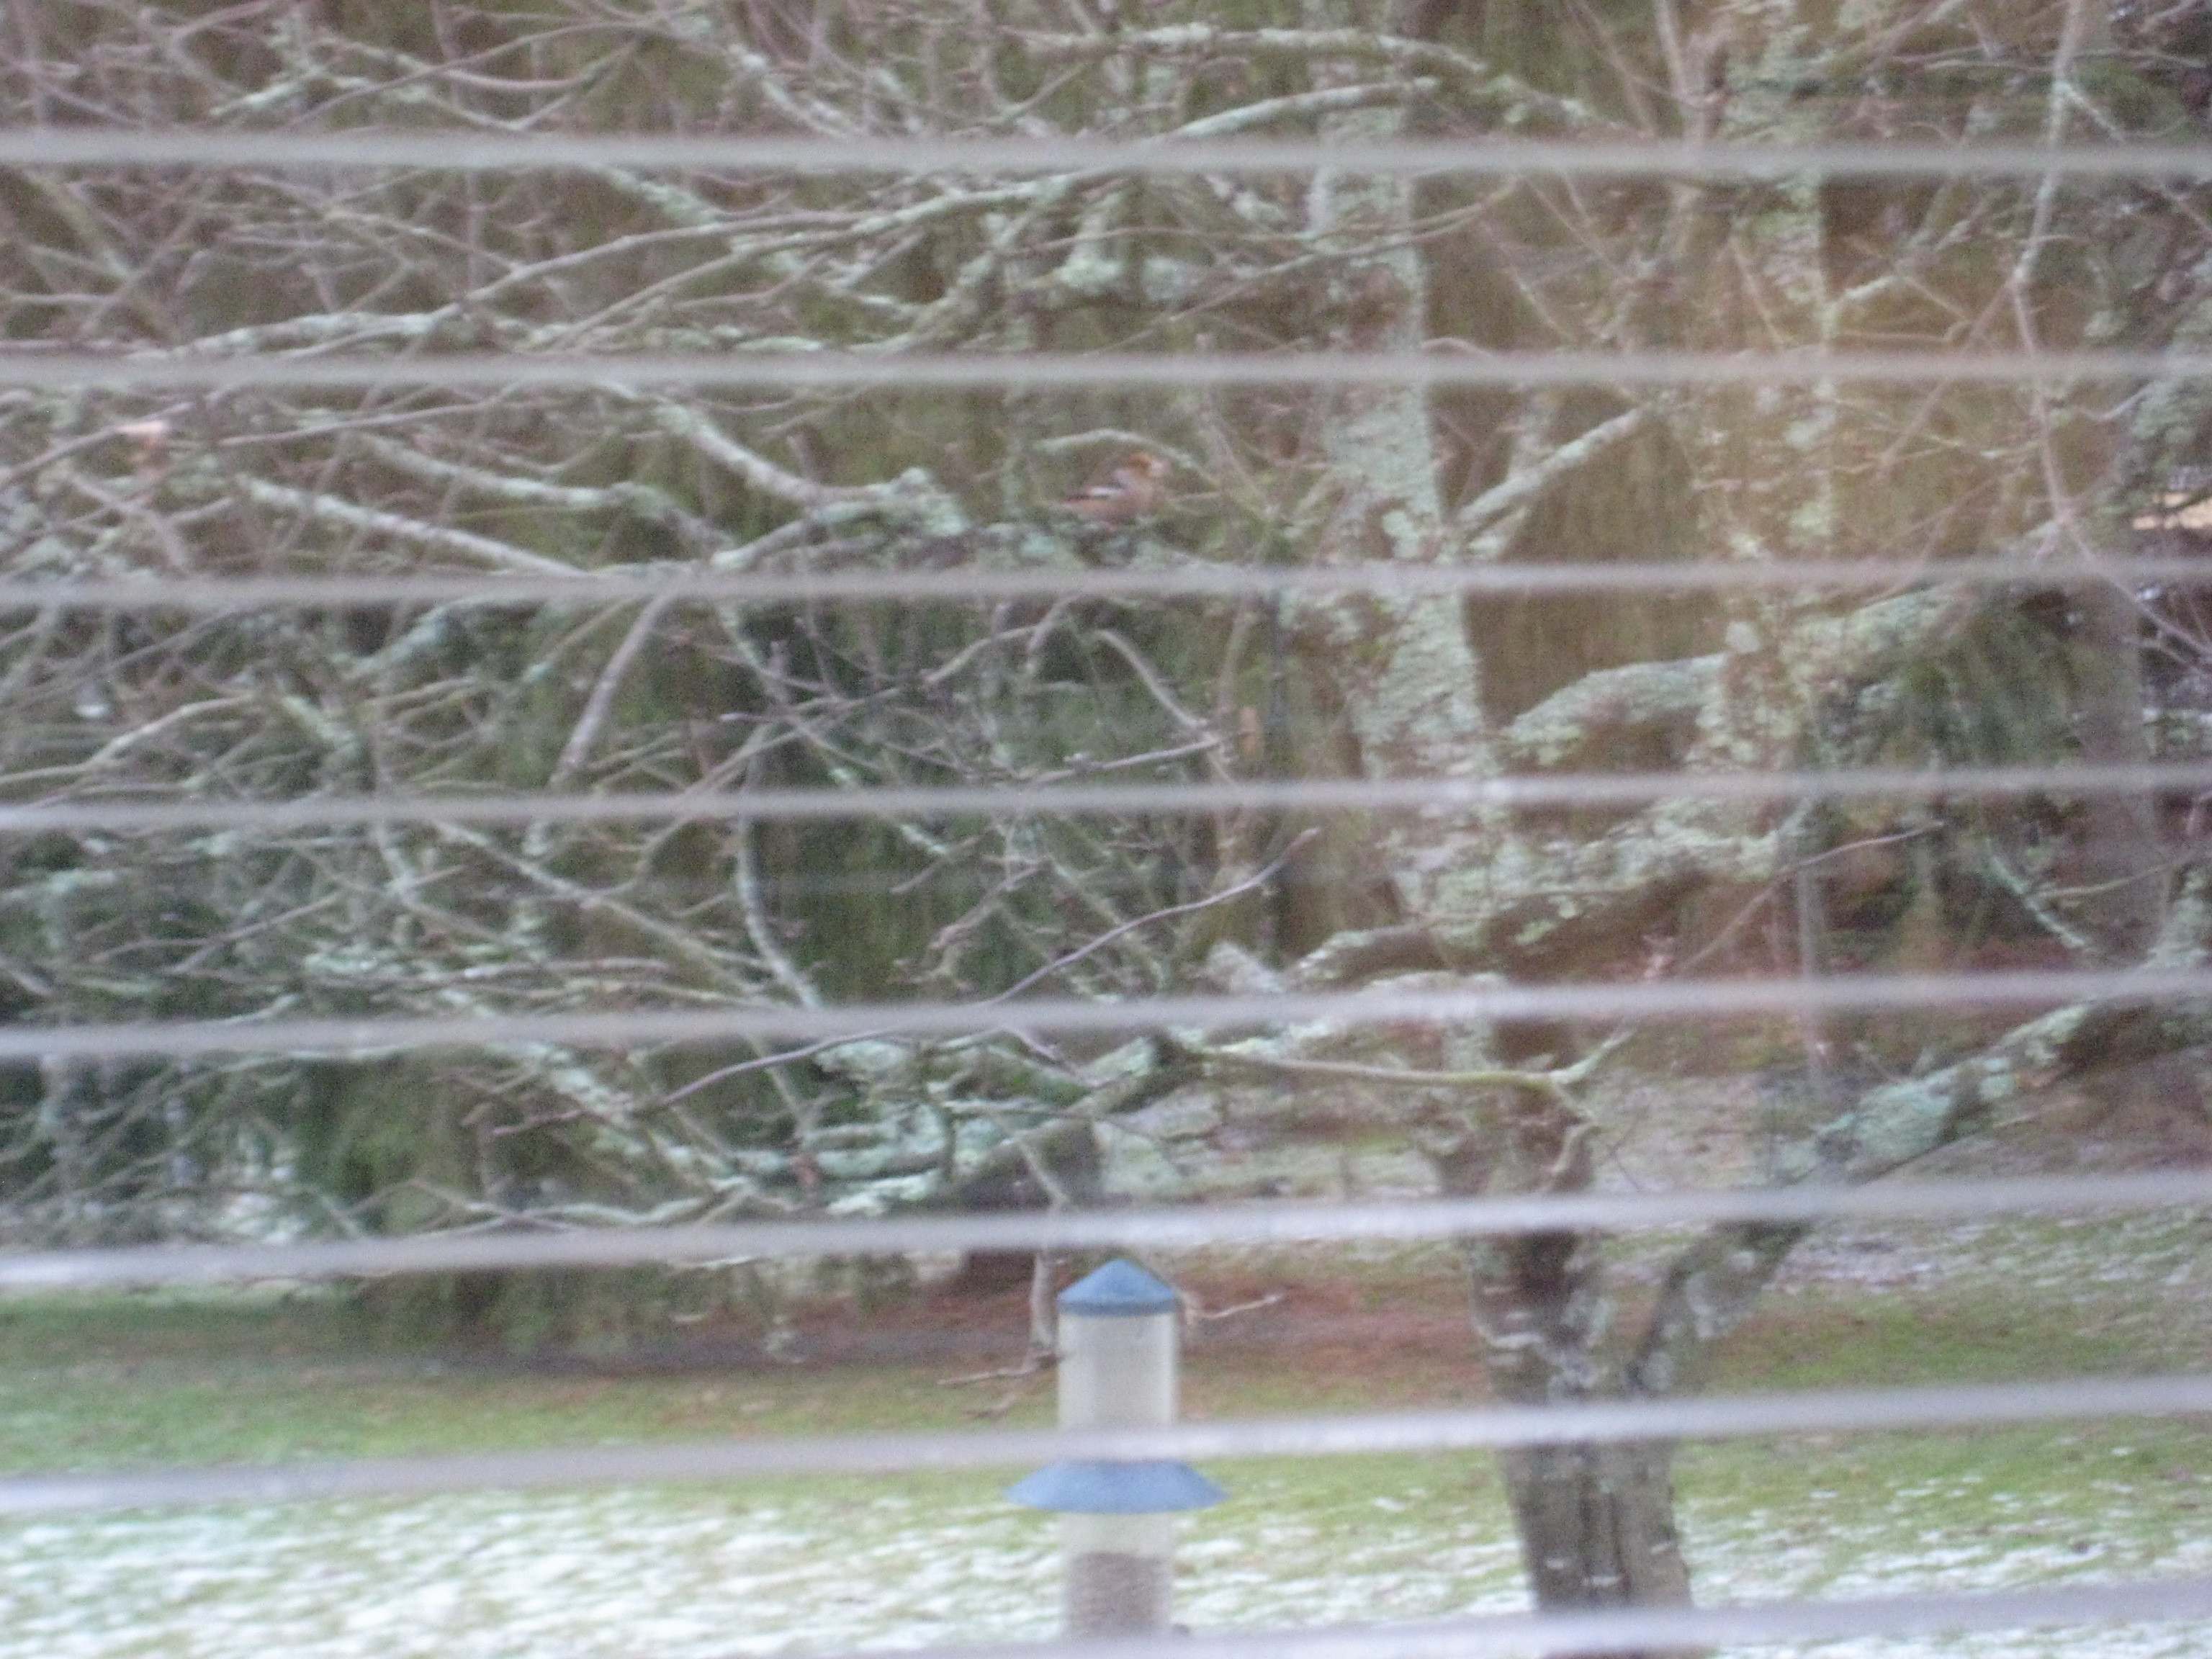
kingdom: Animalia
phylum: Chordata
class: Aves
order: Passeriformes
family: Fringillidae
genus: Coccothraustes
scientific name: Coccothraustes coccothraustes
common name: Hawfinch
